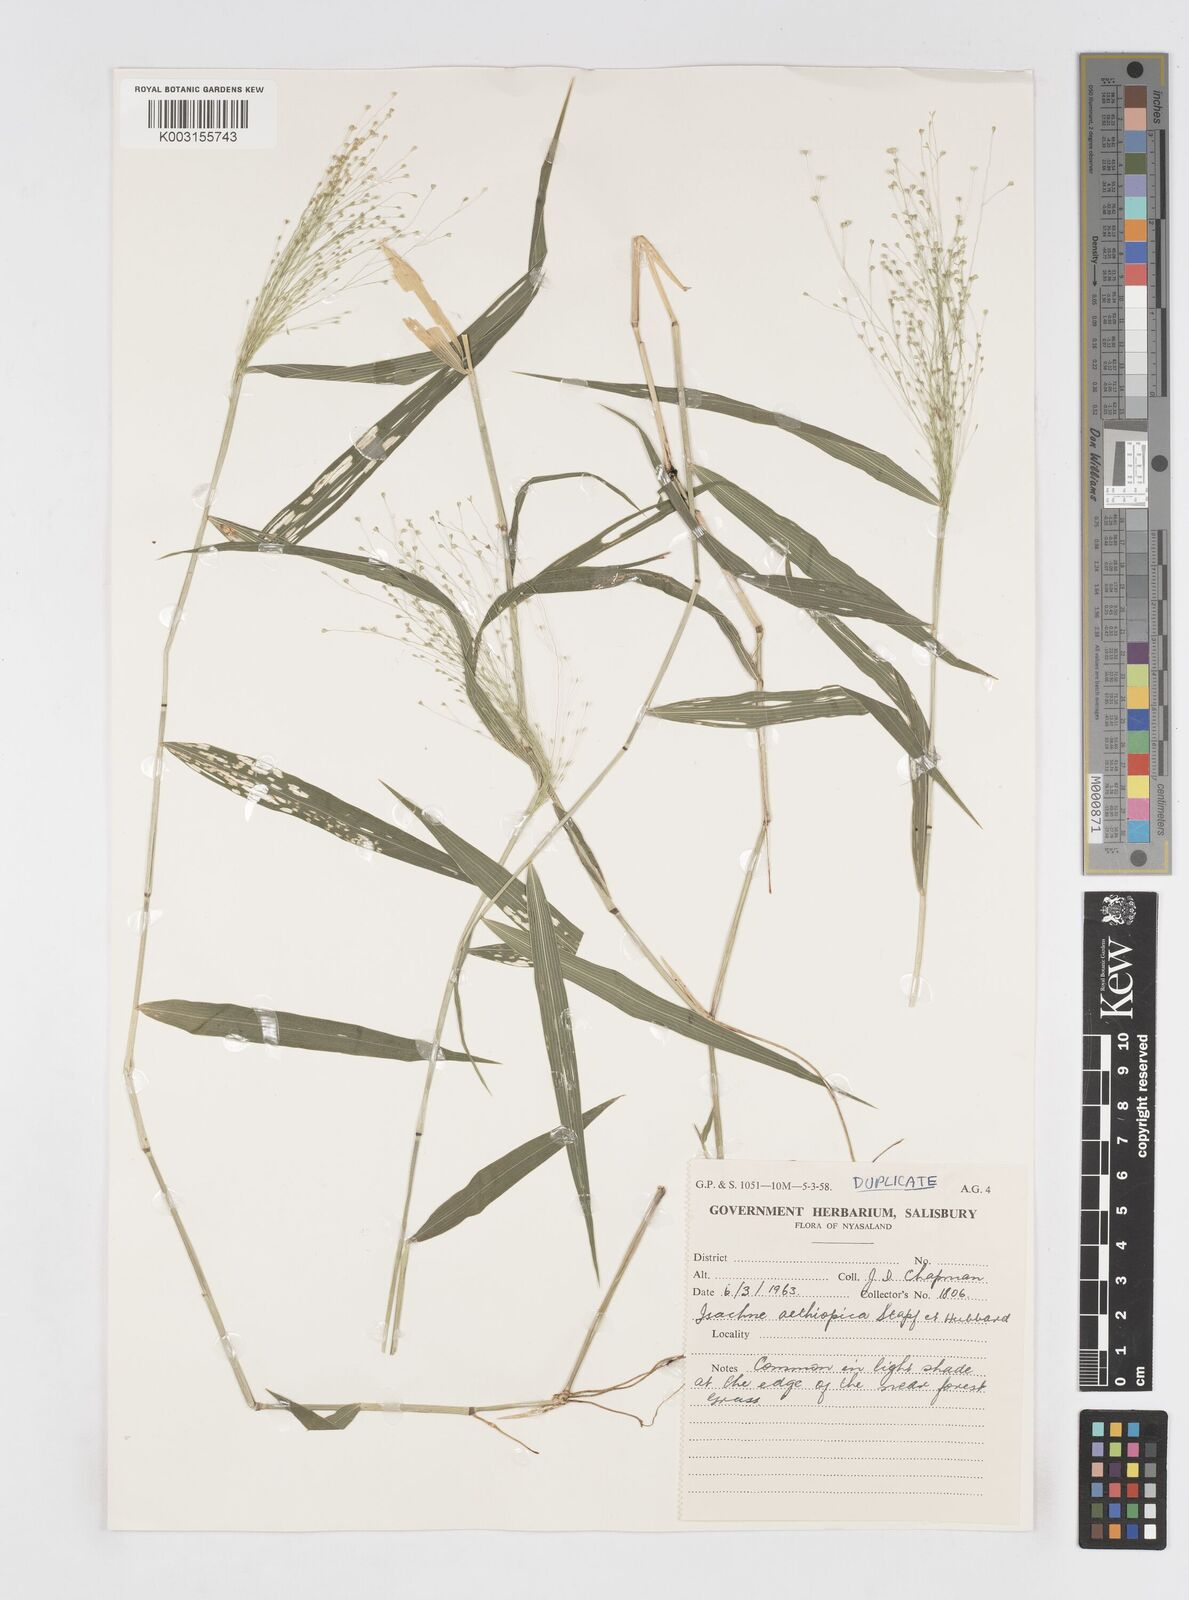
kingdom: Plantae
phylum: Tracheophyta
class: Liliopsida
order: Poales
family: Poaceae
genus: Isachne
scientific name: Isachne mauritiana
